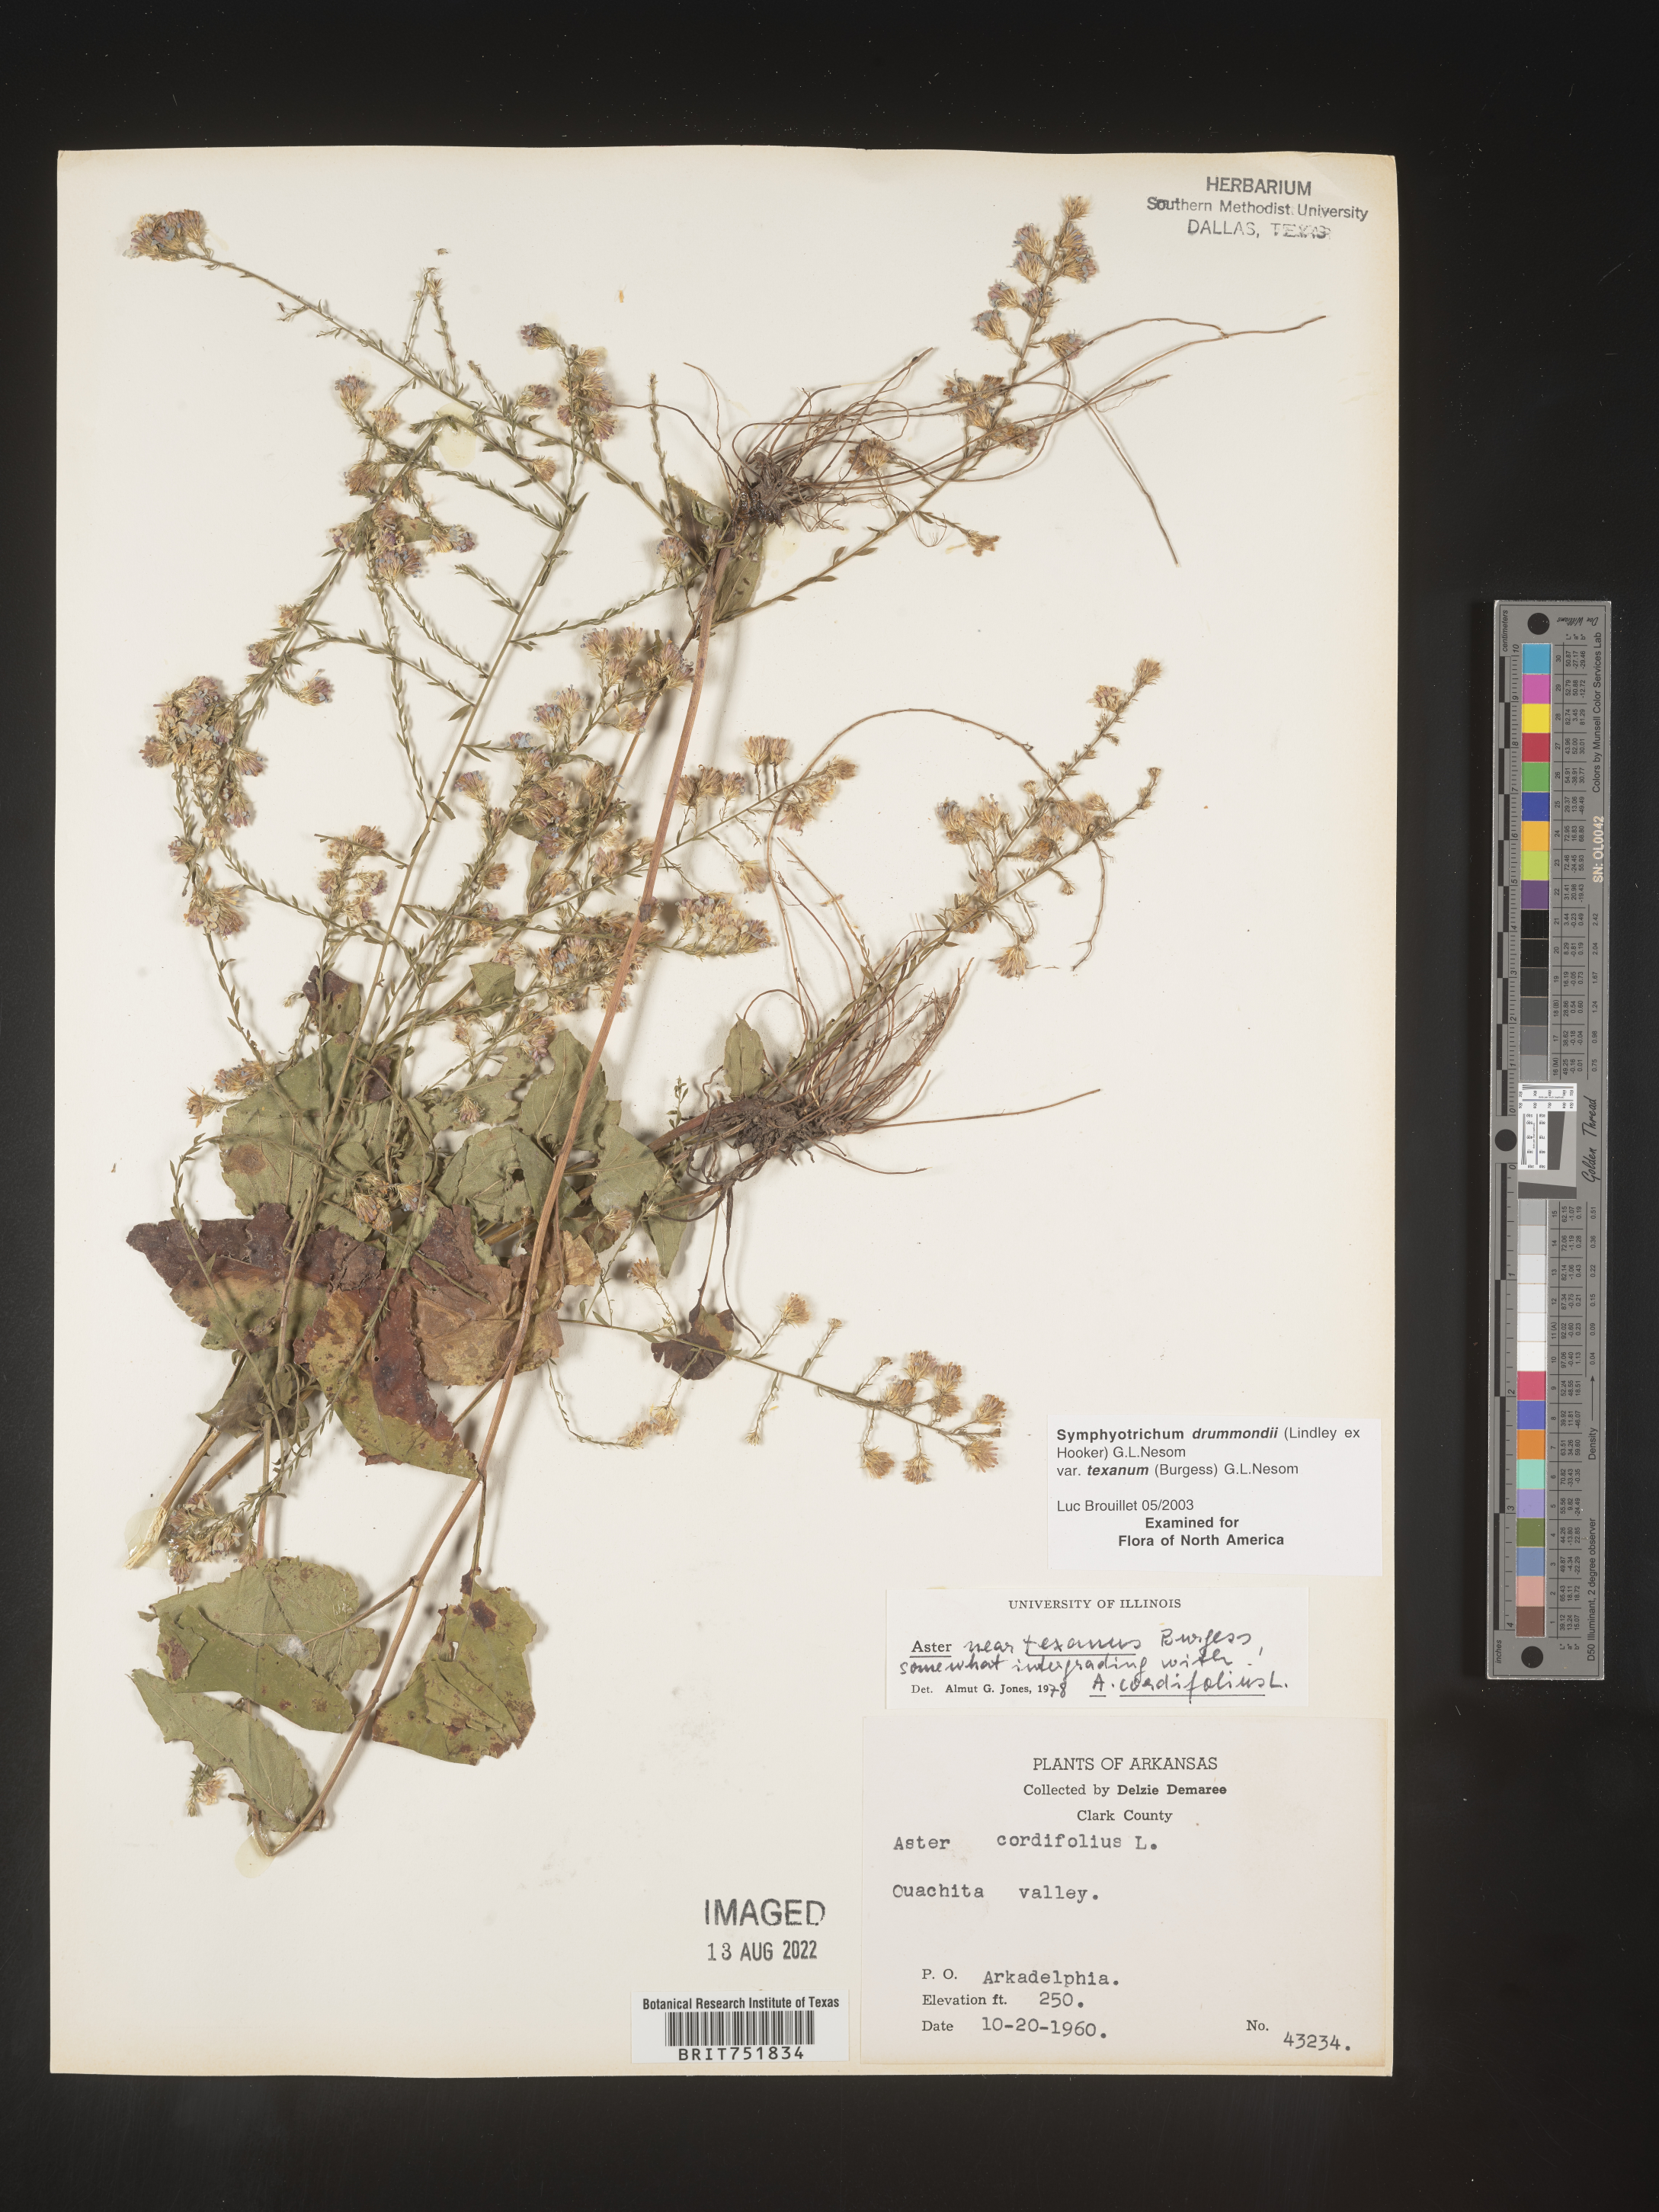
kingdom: Plantae
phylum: Tracheophyta
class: Magnoliopsida
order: Asterales
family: Asteraceae
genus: Symphyotrichum
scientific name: Symphyotrichum drummondii
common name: Drummond's aster
